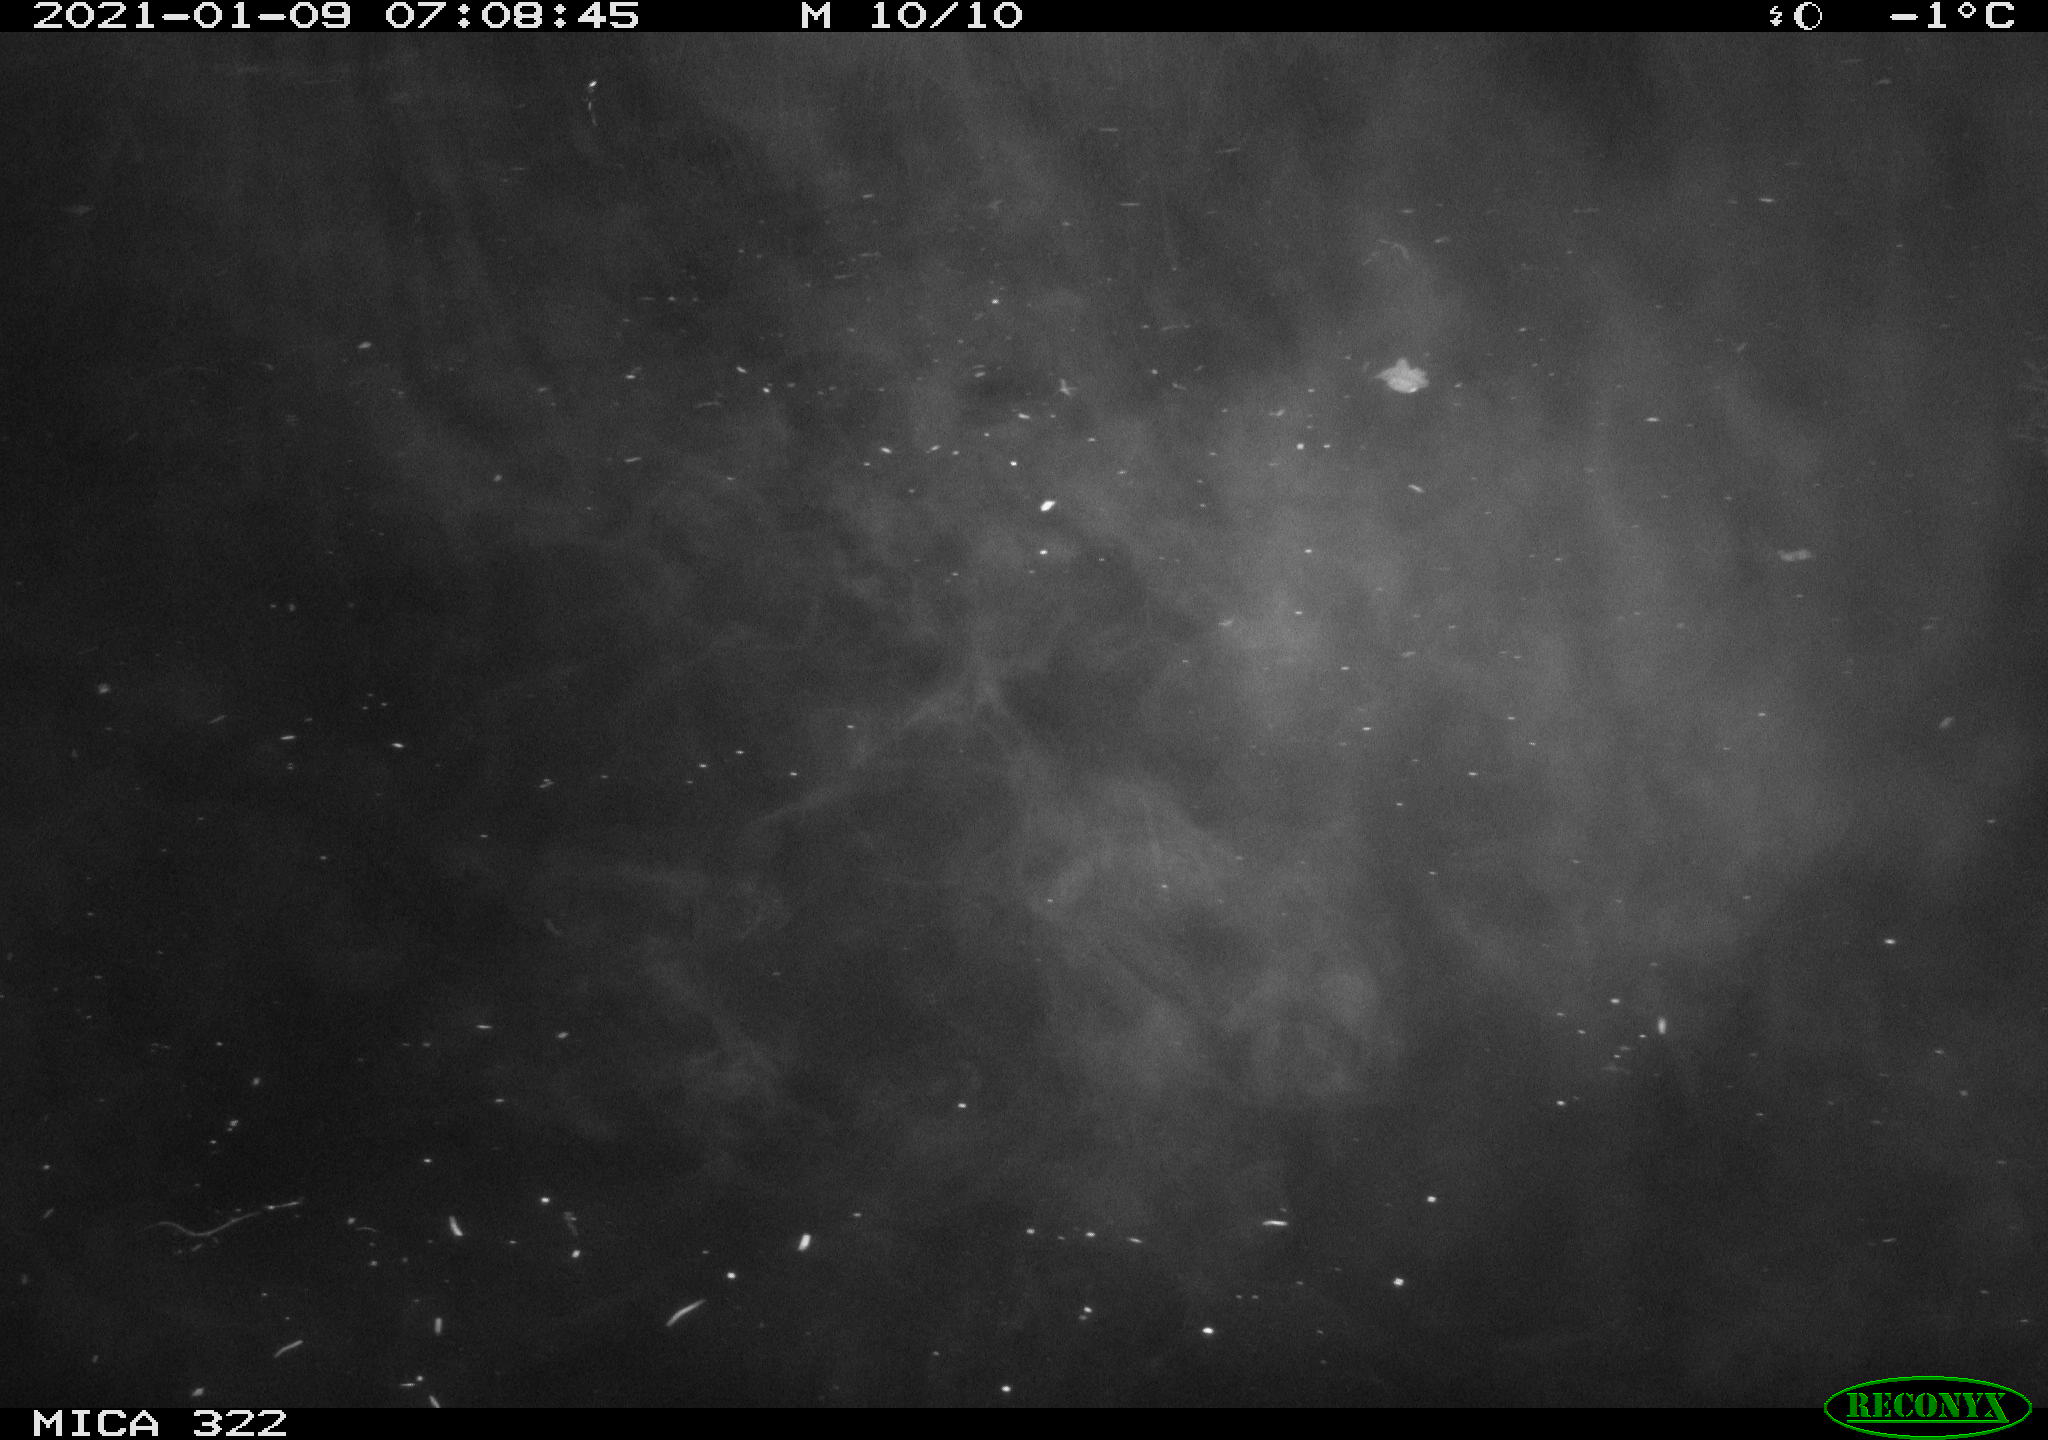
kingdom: Animalia
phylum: Chordata
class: Aves
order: Anseriformes
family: Anatidae
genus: Mareca
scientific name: Mareca strepera
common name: Gadwall
